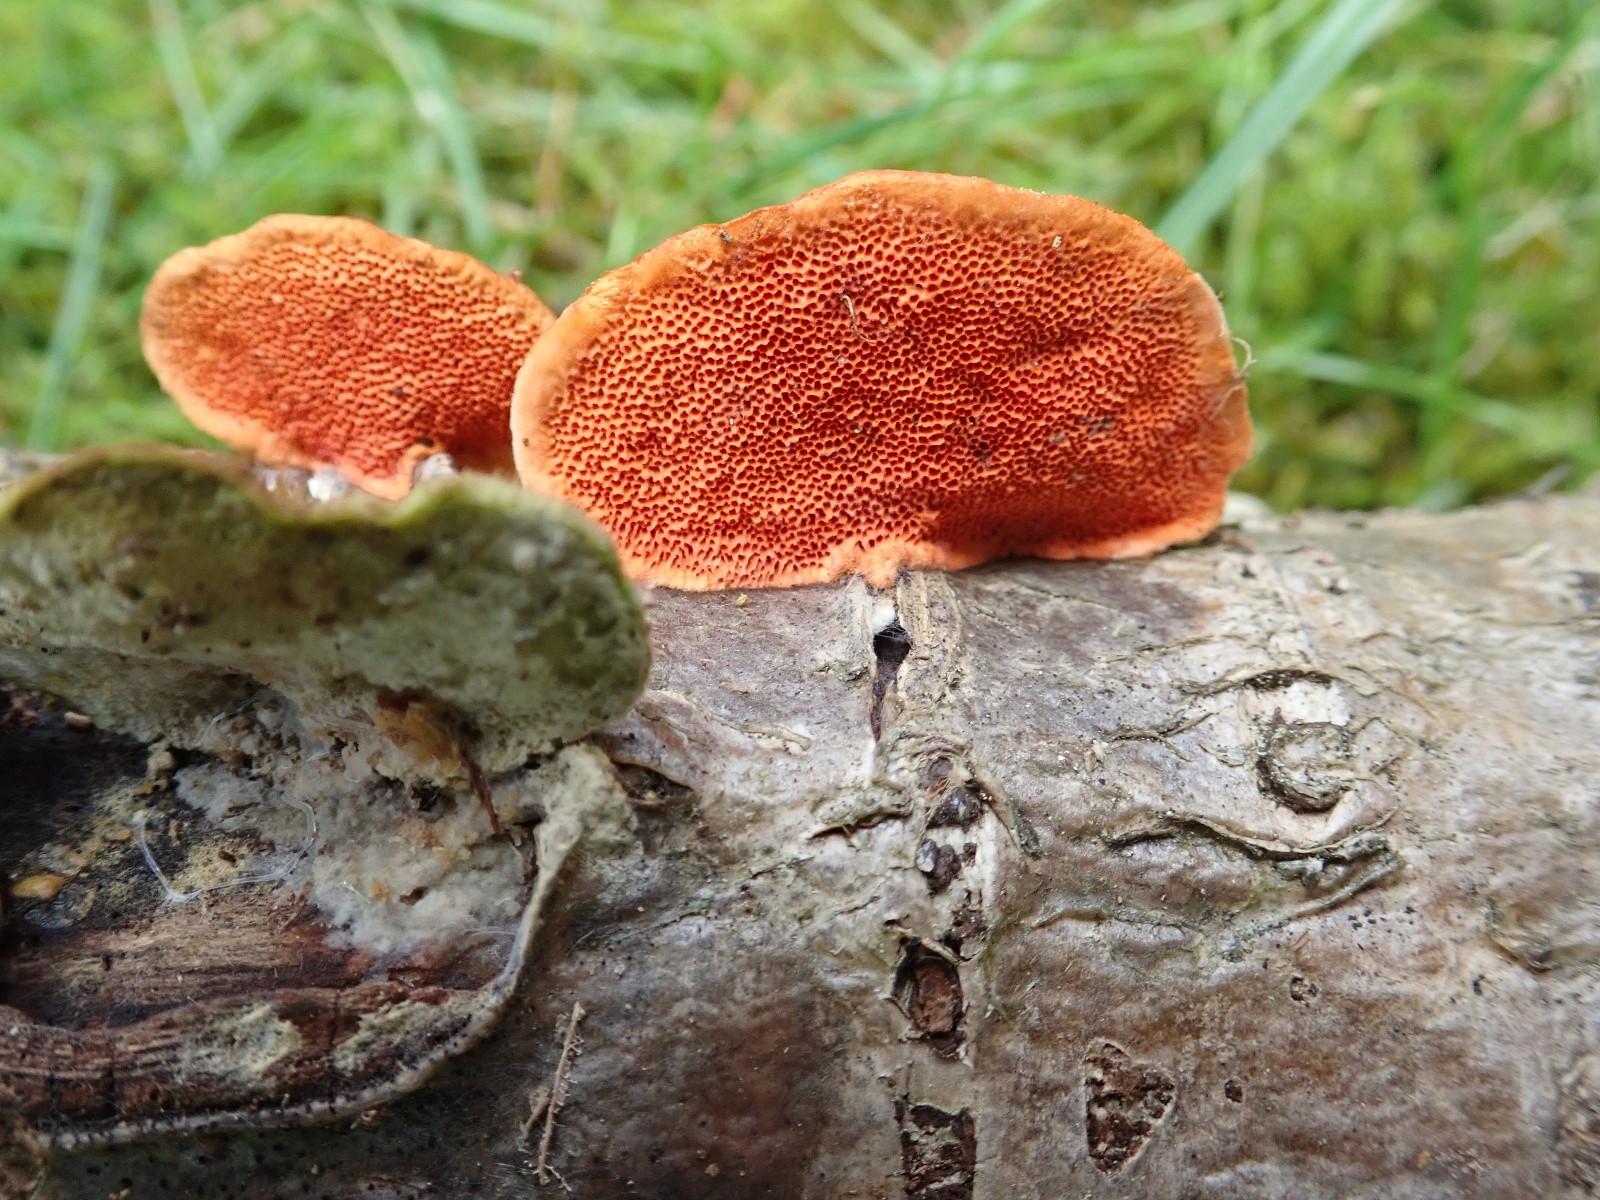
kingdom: Fungi
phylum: Basidiomycota
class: Agaricomycetes
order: Polyporales
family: Polyporaceae
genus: Trametes
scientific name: Trametes cinnabarina
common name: cinnoberporesvamp
